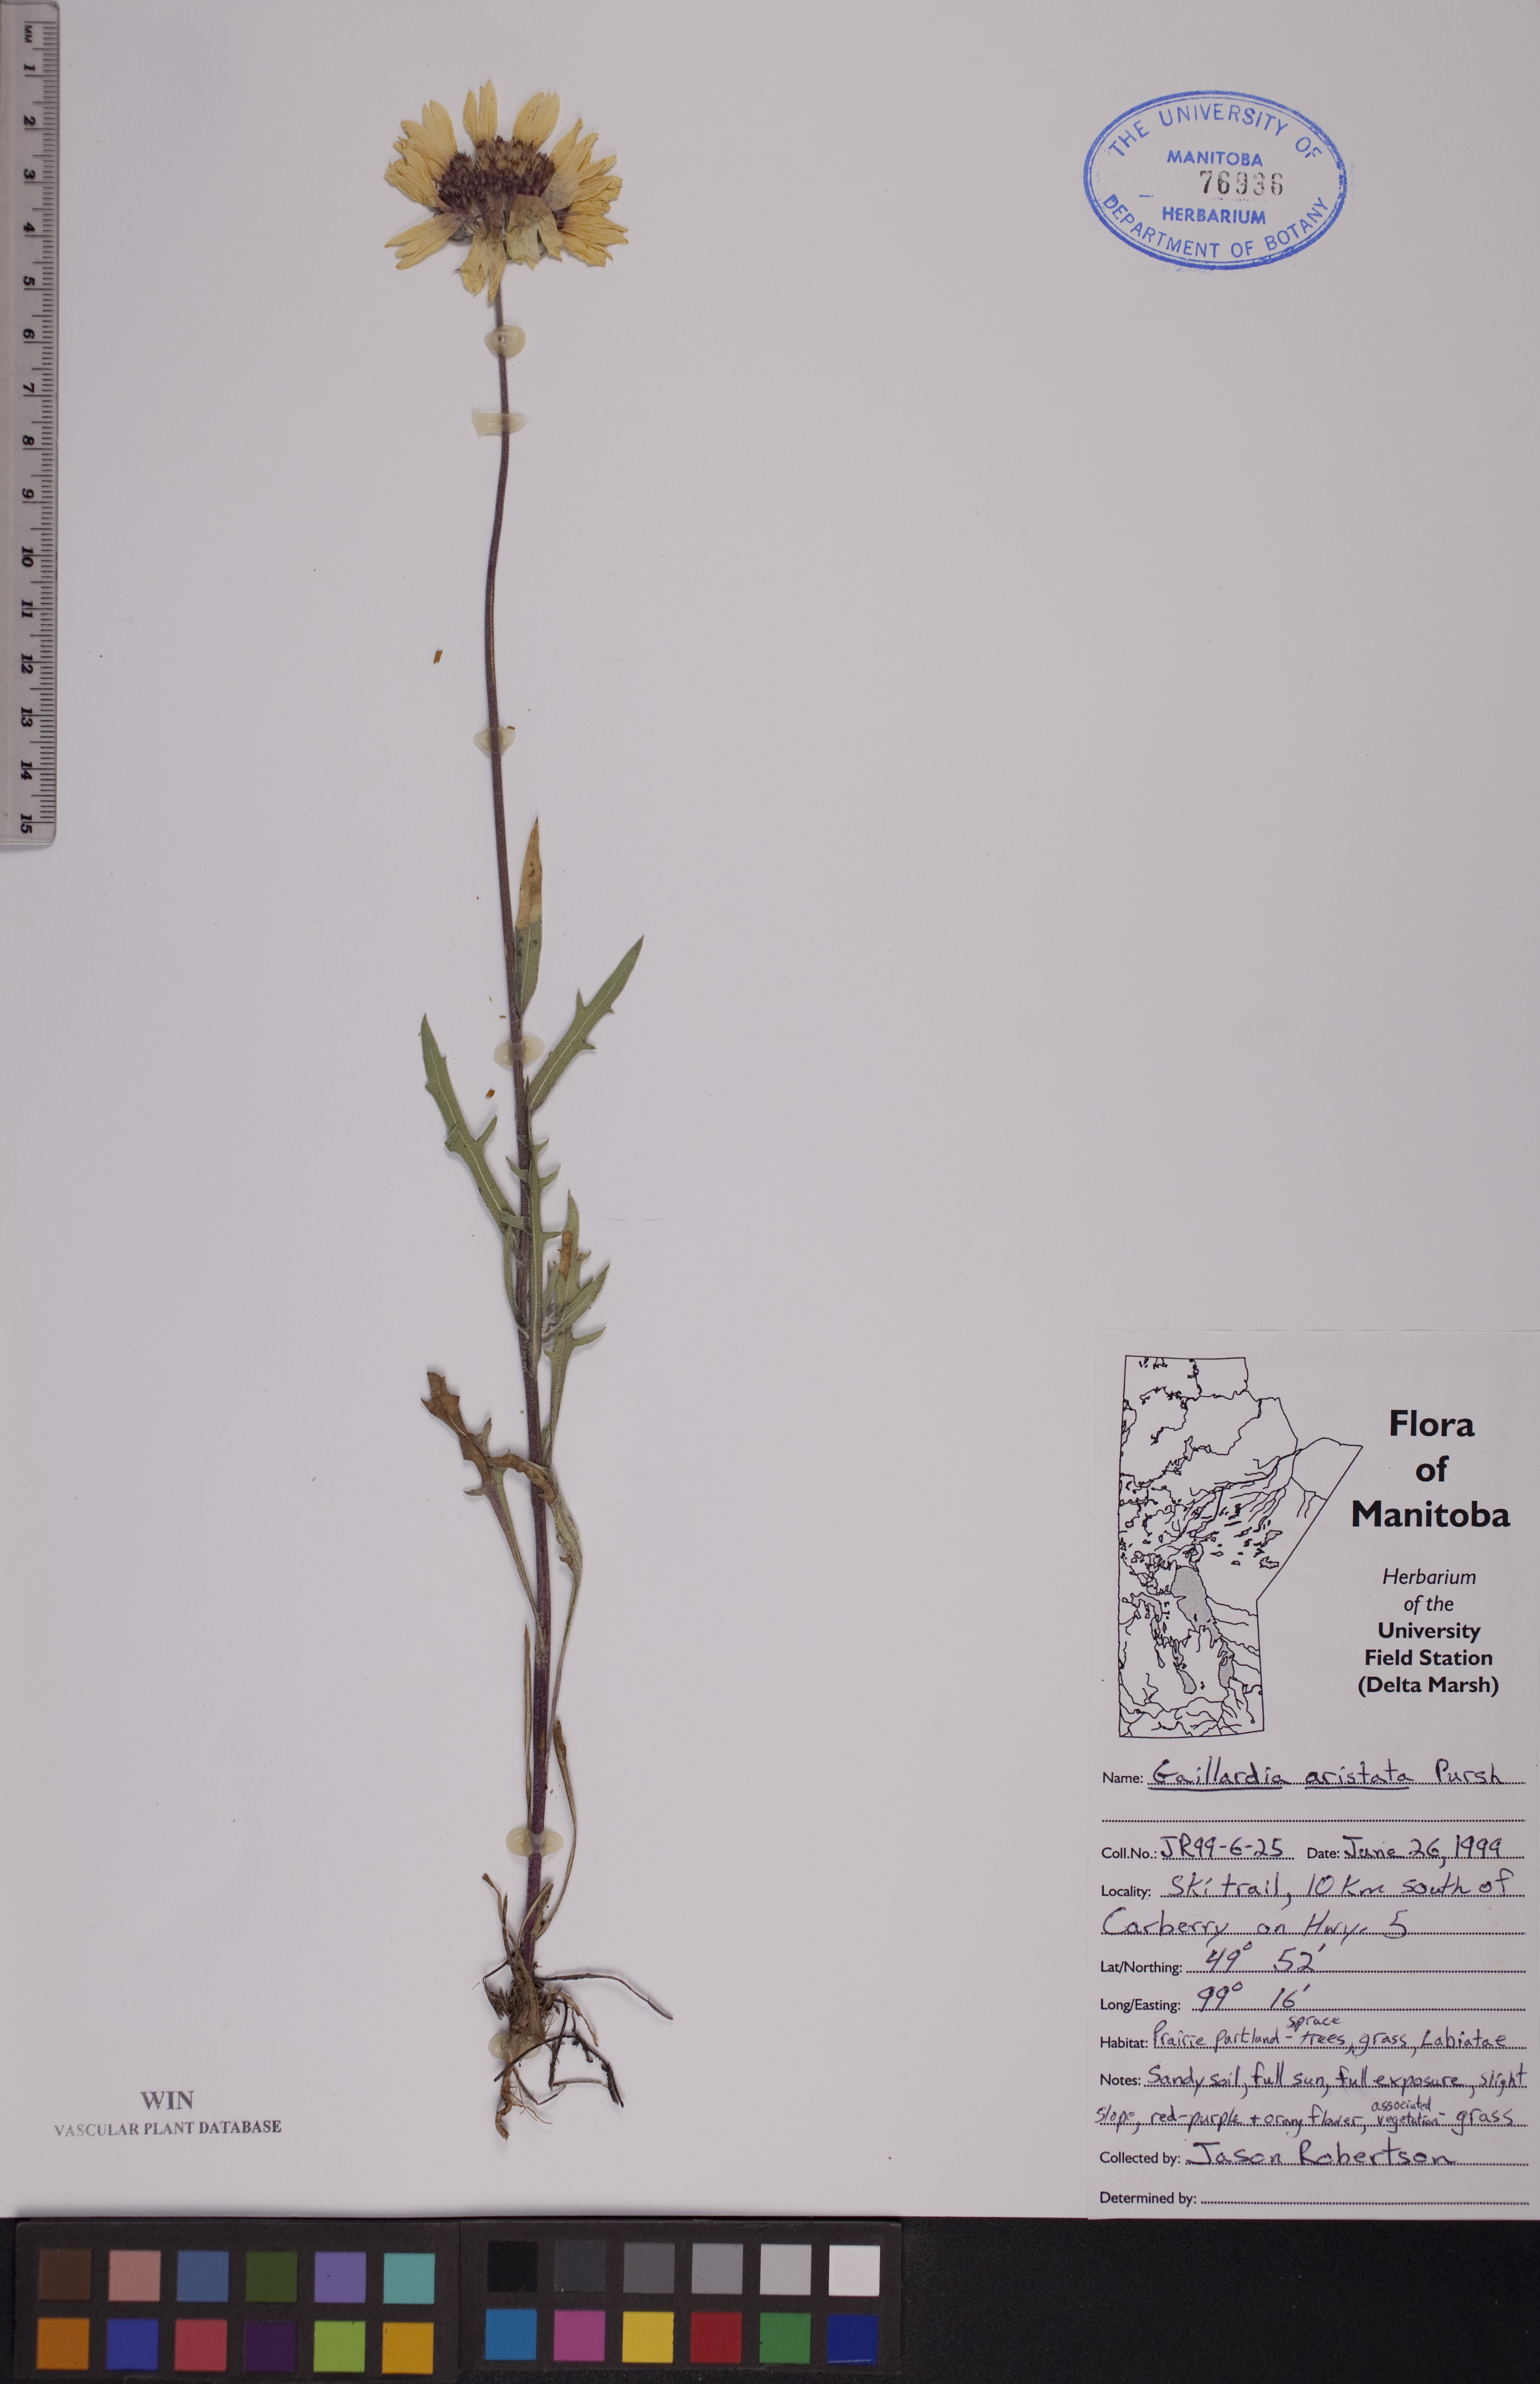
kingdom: Plantae
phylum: Tracheophyta
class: Magnoliopsida
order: Asterales
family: Asteraceae
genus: Gaillardia
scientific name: Gaillardia aristata
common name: Blanket-flower
